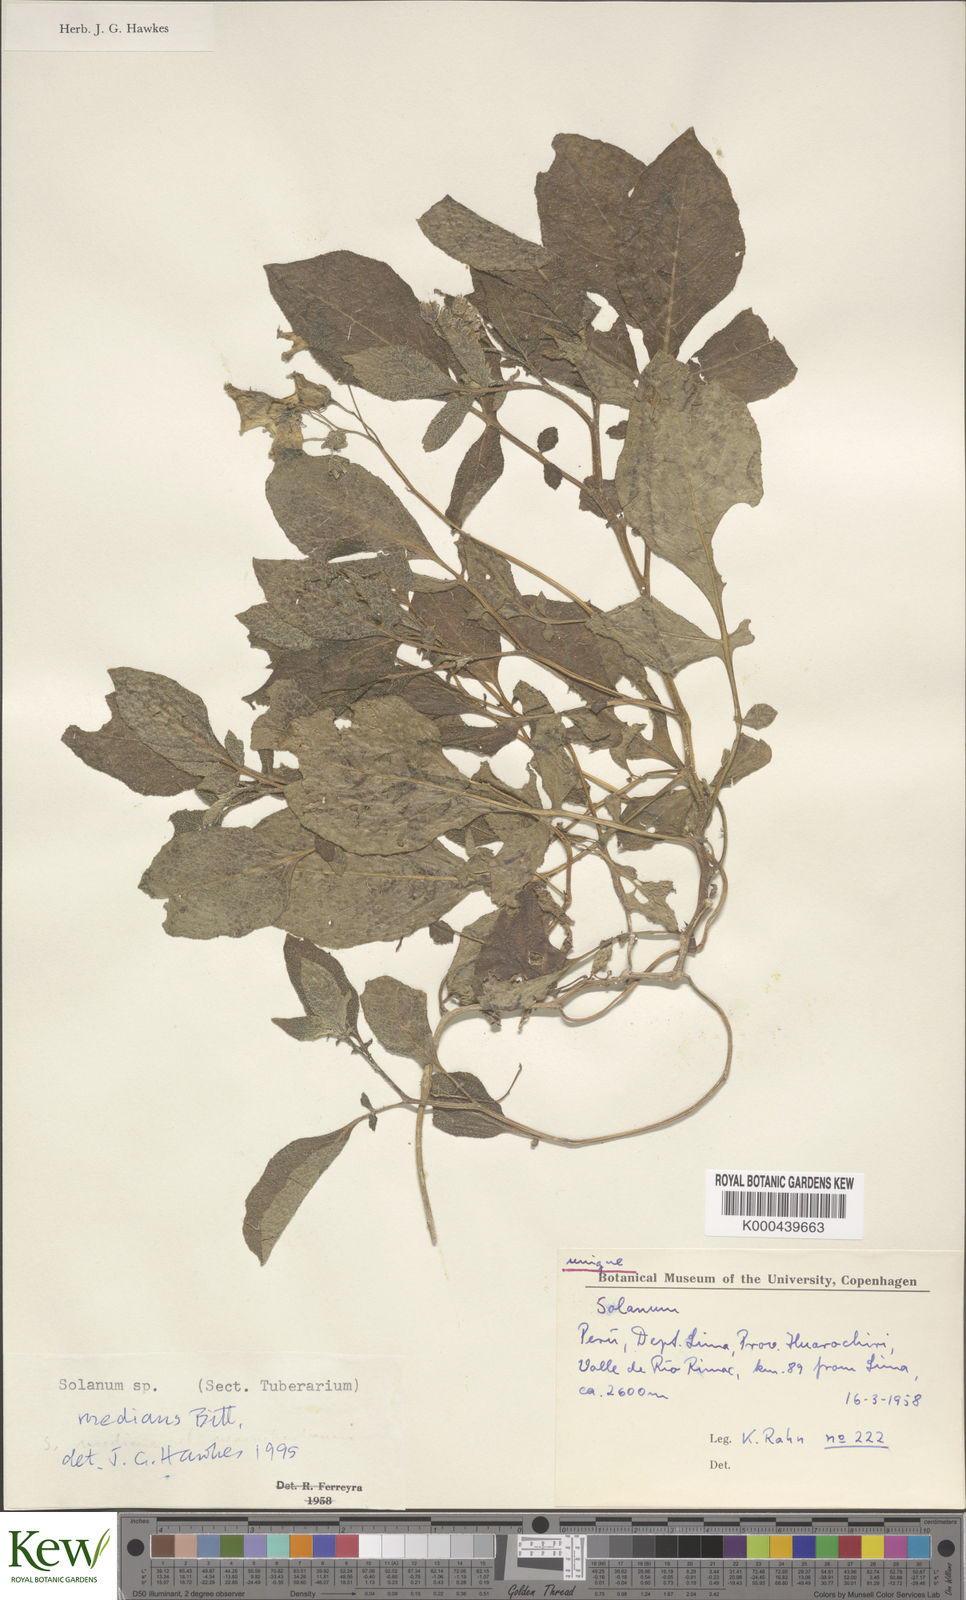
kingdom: Plantae
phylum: Tracheophyta
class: Magnoliopsida
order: Solanales
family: Solanaceae
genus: Solanum
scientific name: Solanum medians
